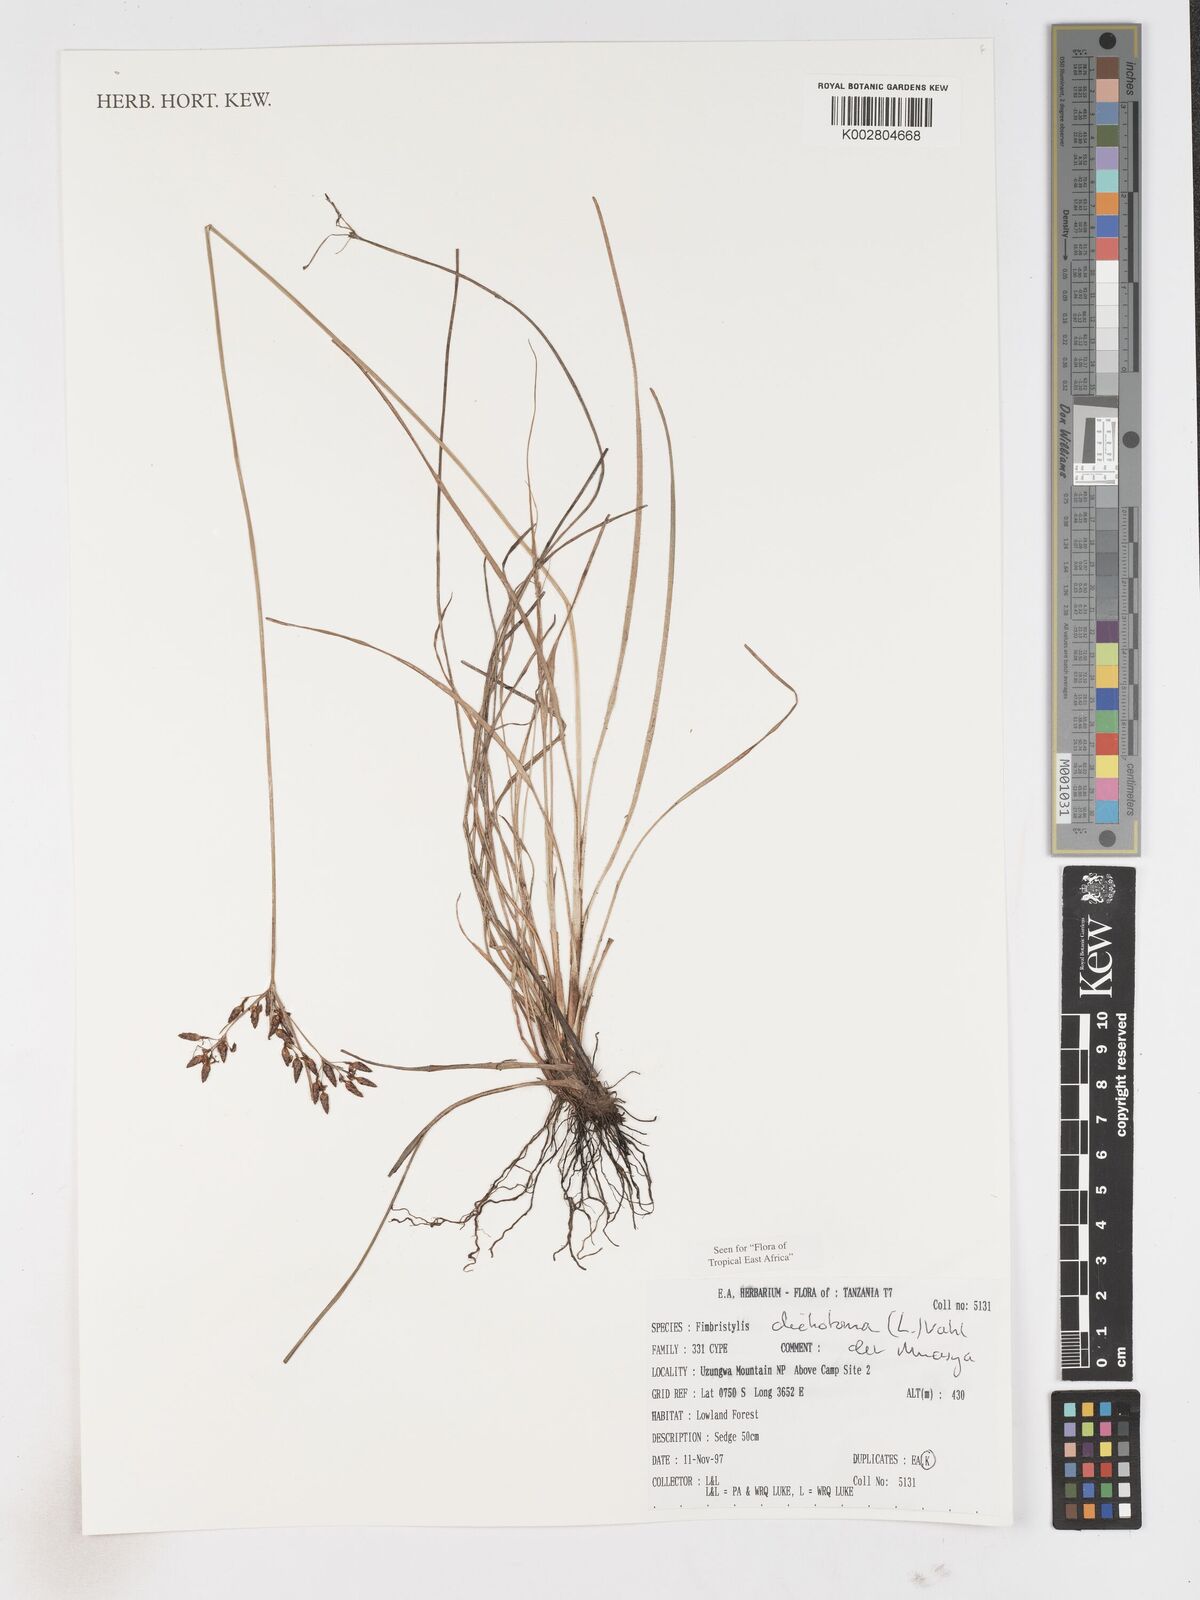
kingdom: Plantae
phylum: Tracheophyta
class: Liliopsida
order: Poales
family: Cyperaceae
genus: Fimbristylis
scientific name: Fimbristylis dichotoma
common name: Forked fimbry
